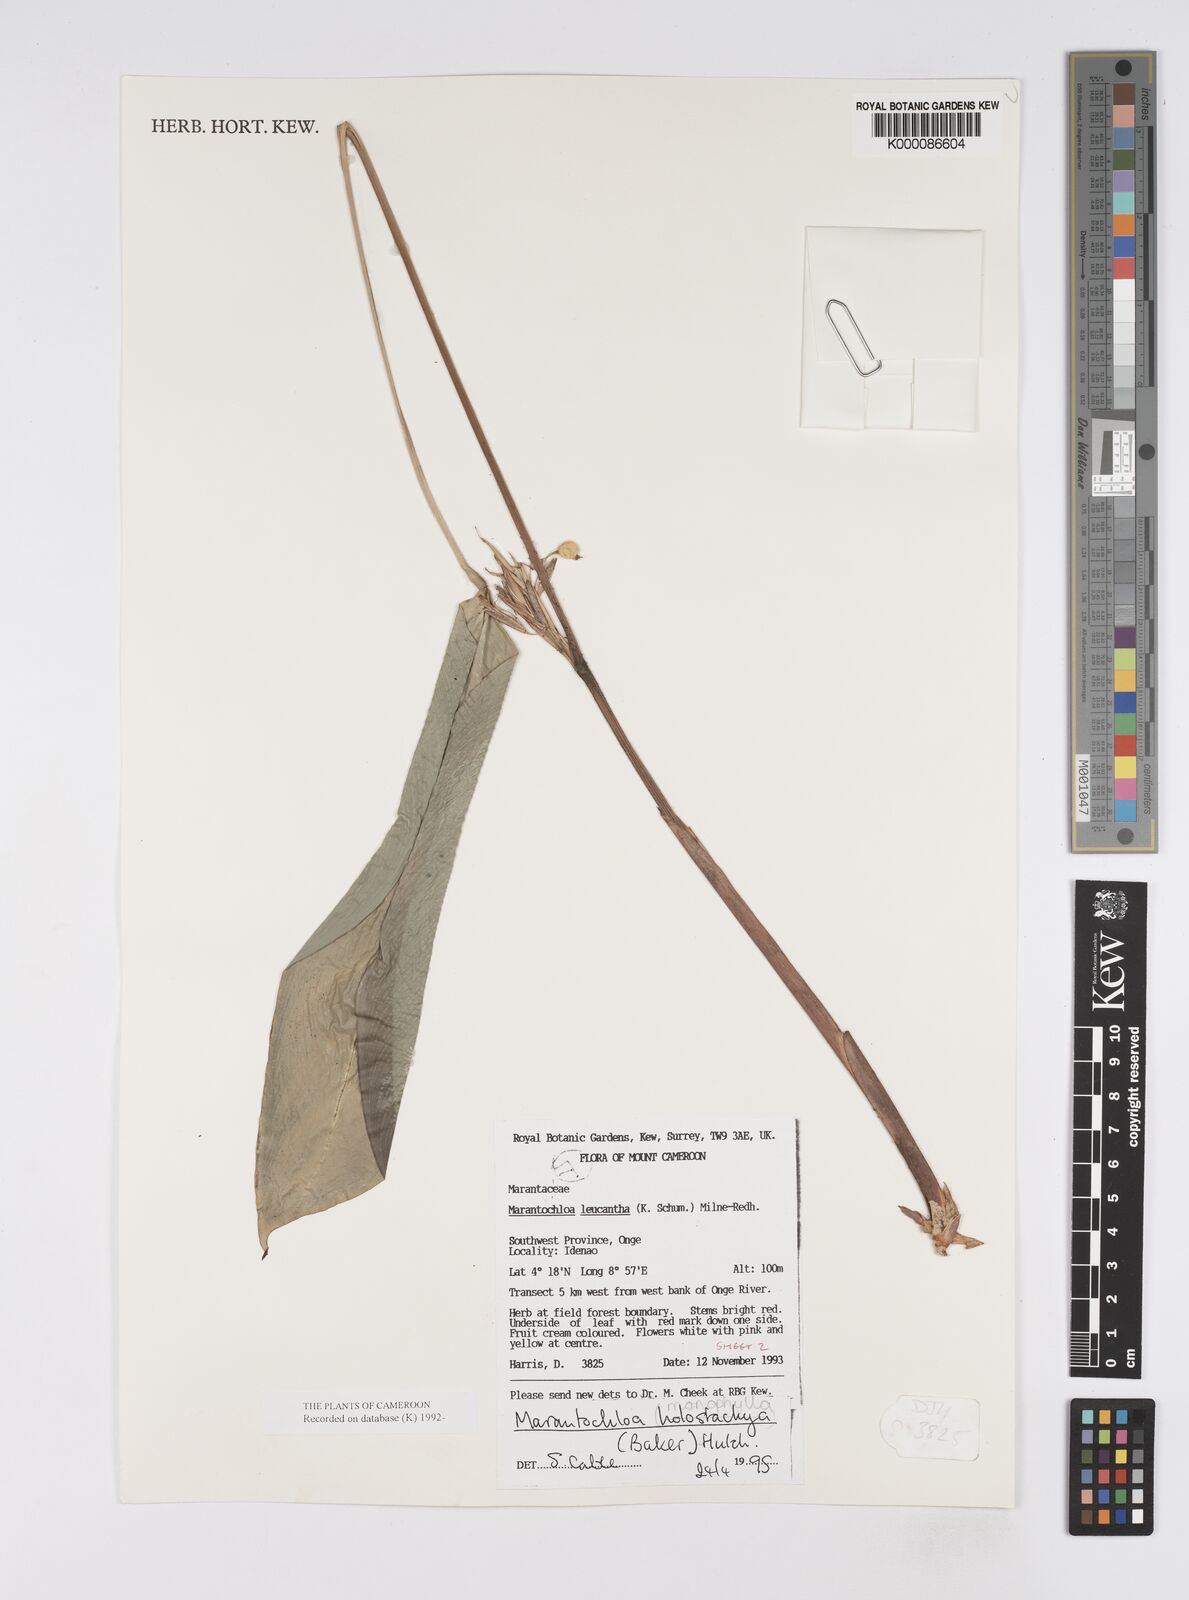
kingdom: Plantae
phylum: Tracheophyta
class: Liliopsida
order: Zingiberales
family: Marantaceae
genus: Marantochloa
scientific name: Marantochloa monophylla
